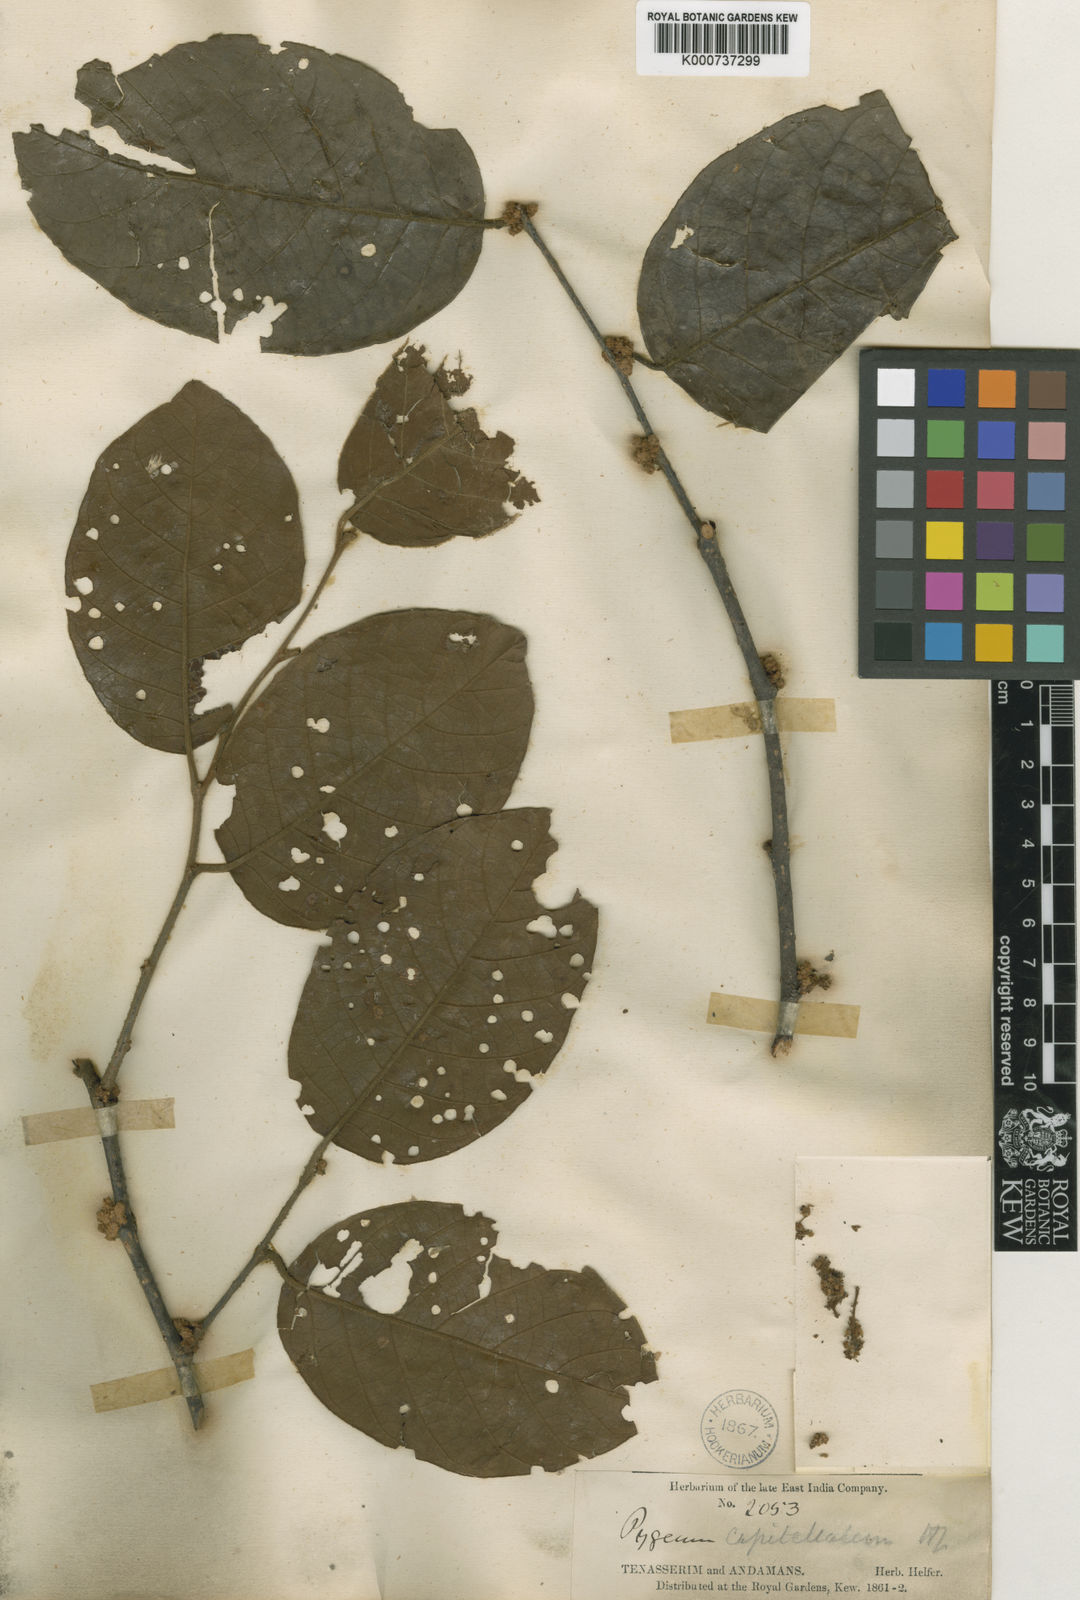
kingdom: Plantae
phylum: Tracheophyta
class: Magnoliopsida
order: Rosales
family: Rosaceae
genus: Prunus
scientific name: Prunus arborea
